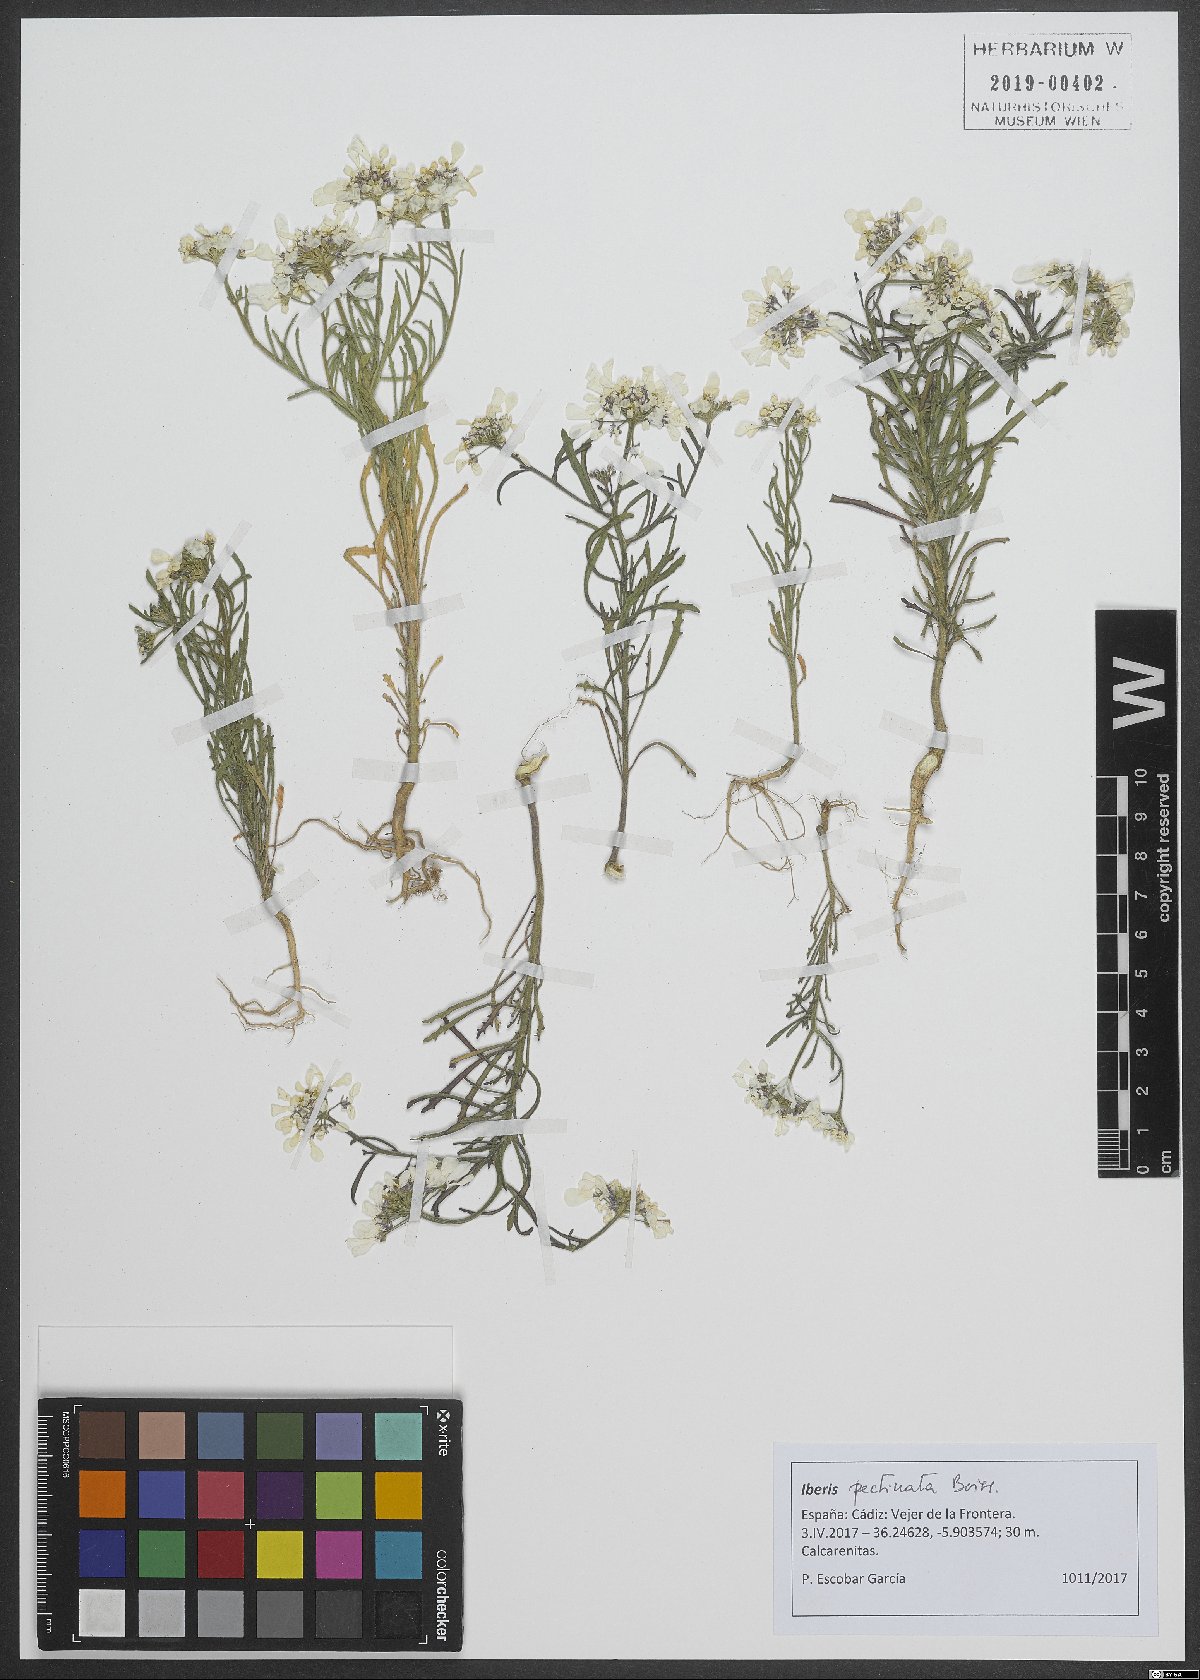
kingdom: Plantae
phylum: Tracheophyta
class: Magnoliopsida
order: Brassicales
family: Brassicaceae
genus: Iberis
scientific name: Iberis pectinata
